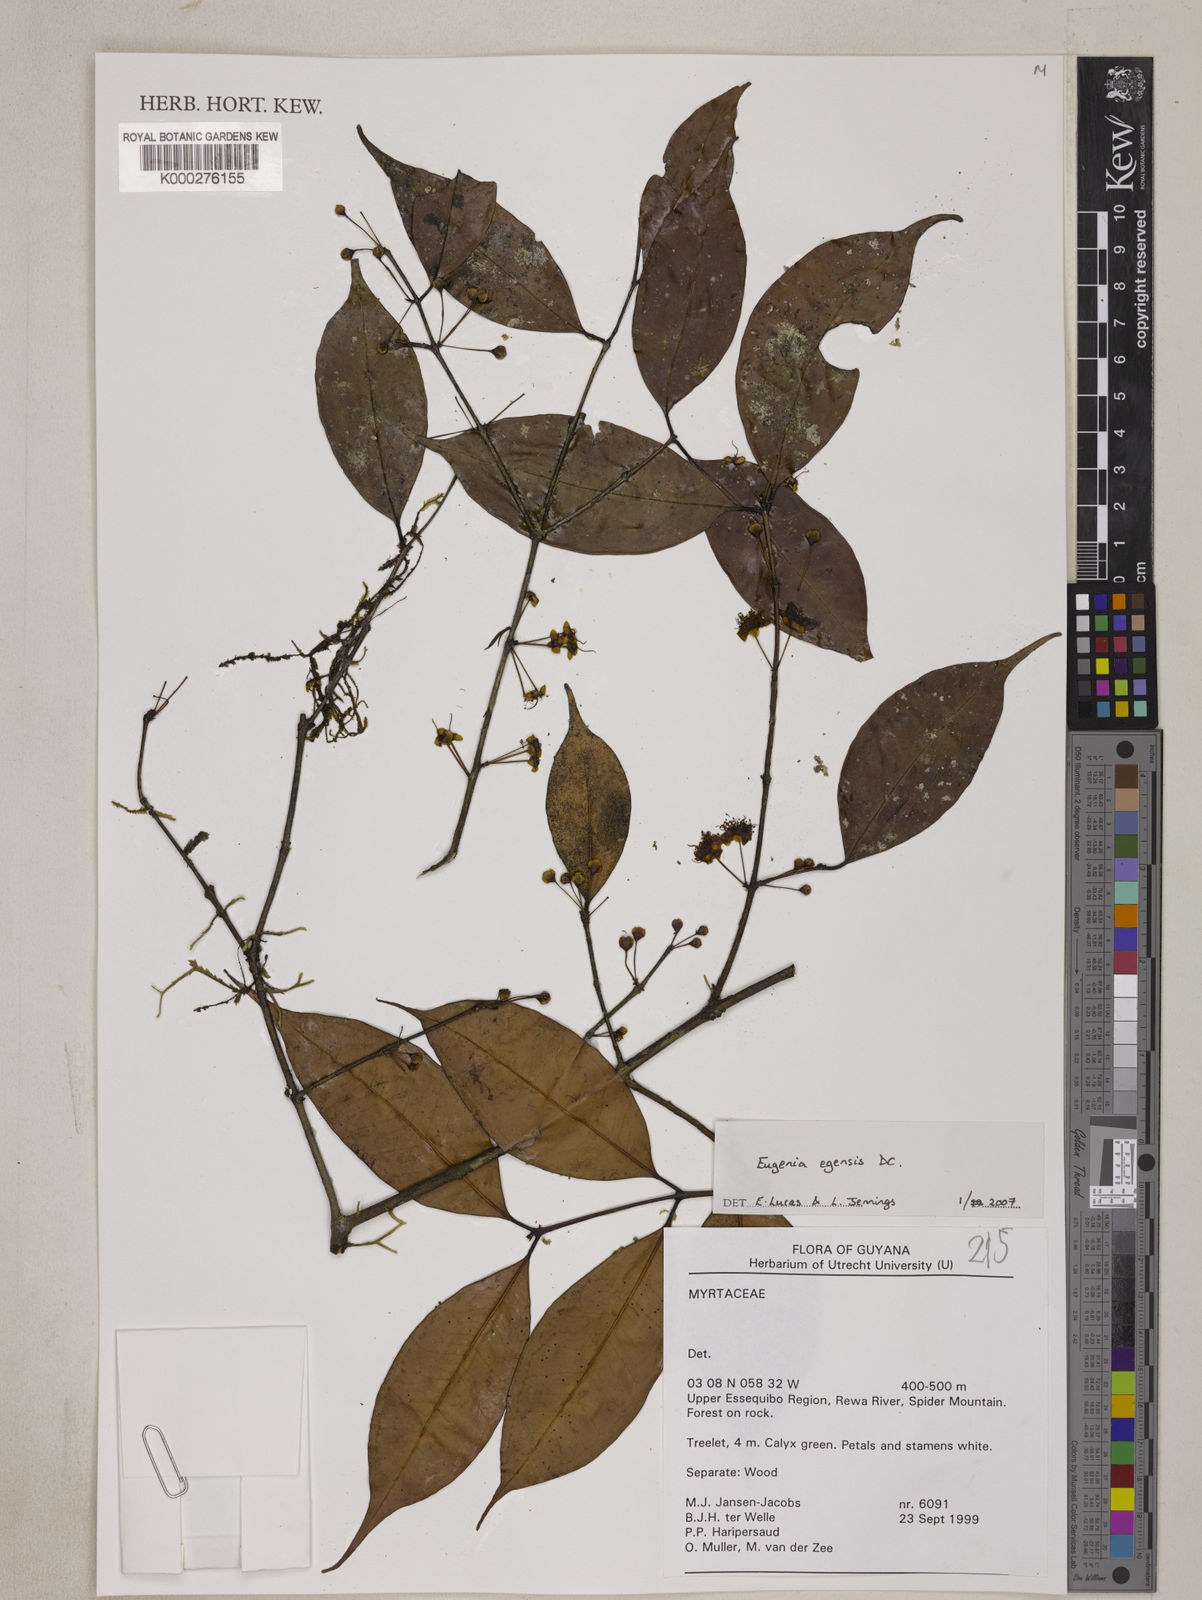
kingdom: Plantae
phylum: Tracheophyta
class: Magnoliopsida
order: Myrtales
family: Myrtaceae
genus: Eugenia
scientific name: Eugenia egensis
